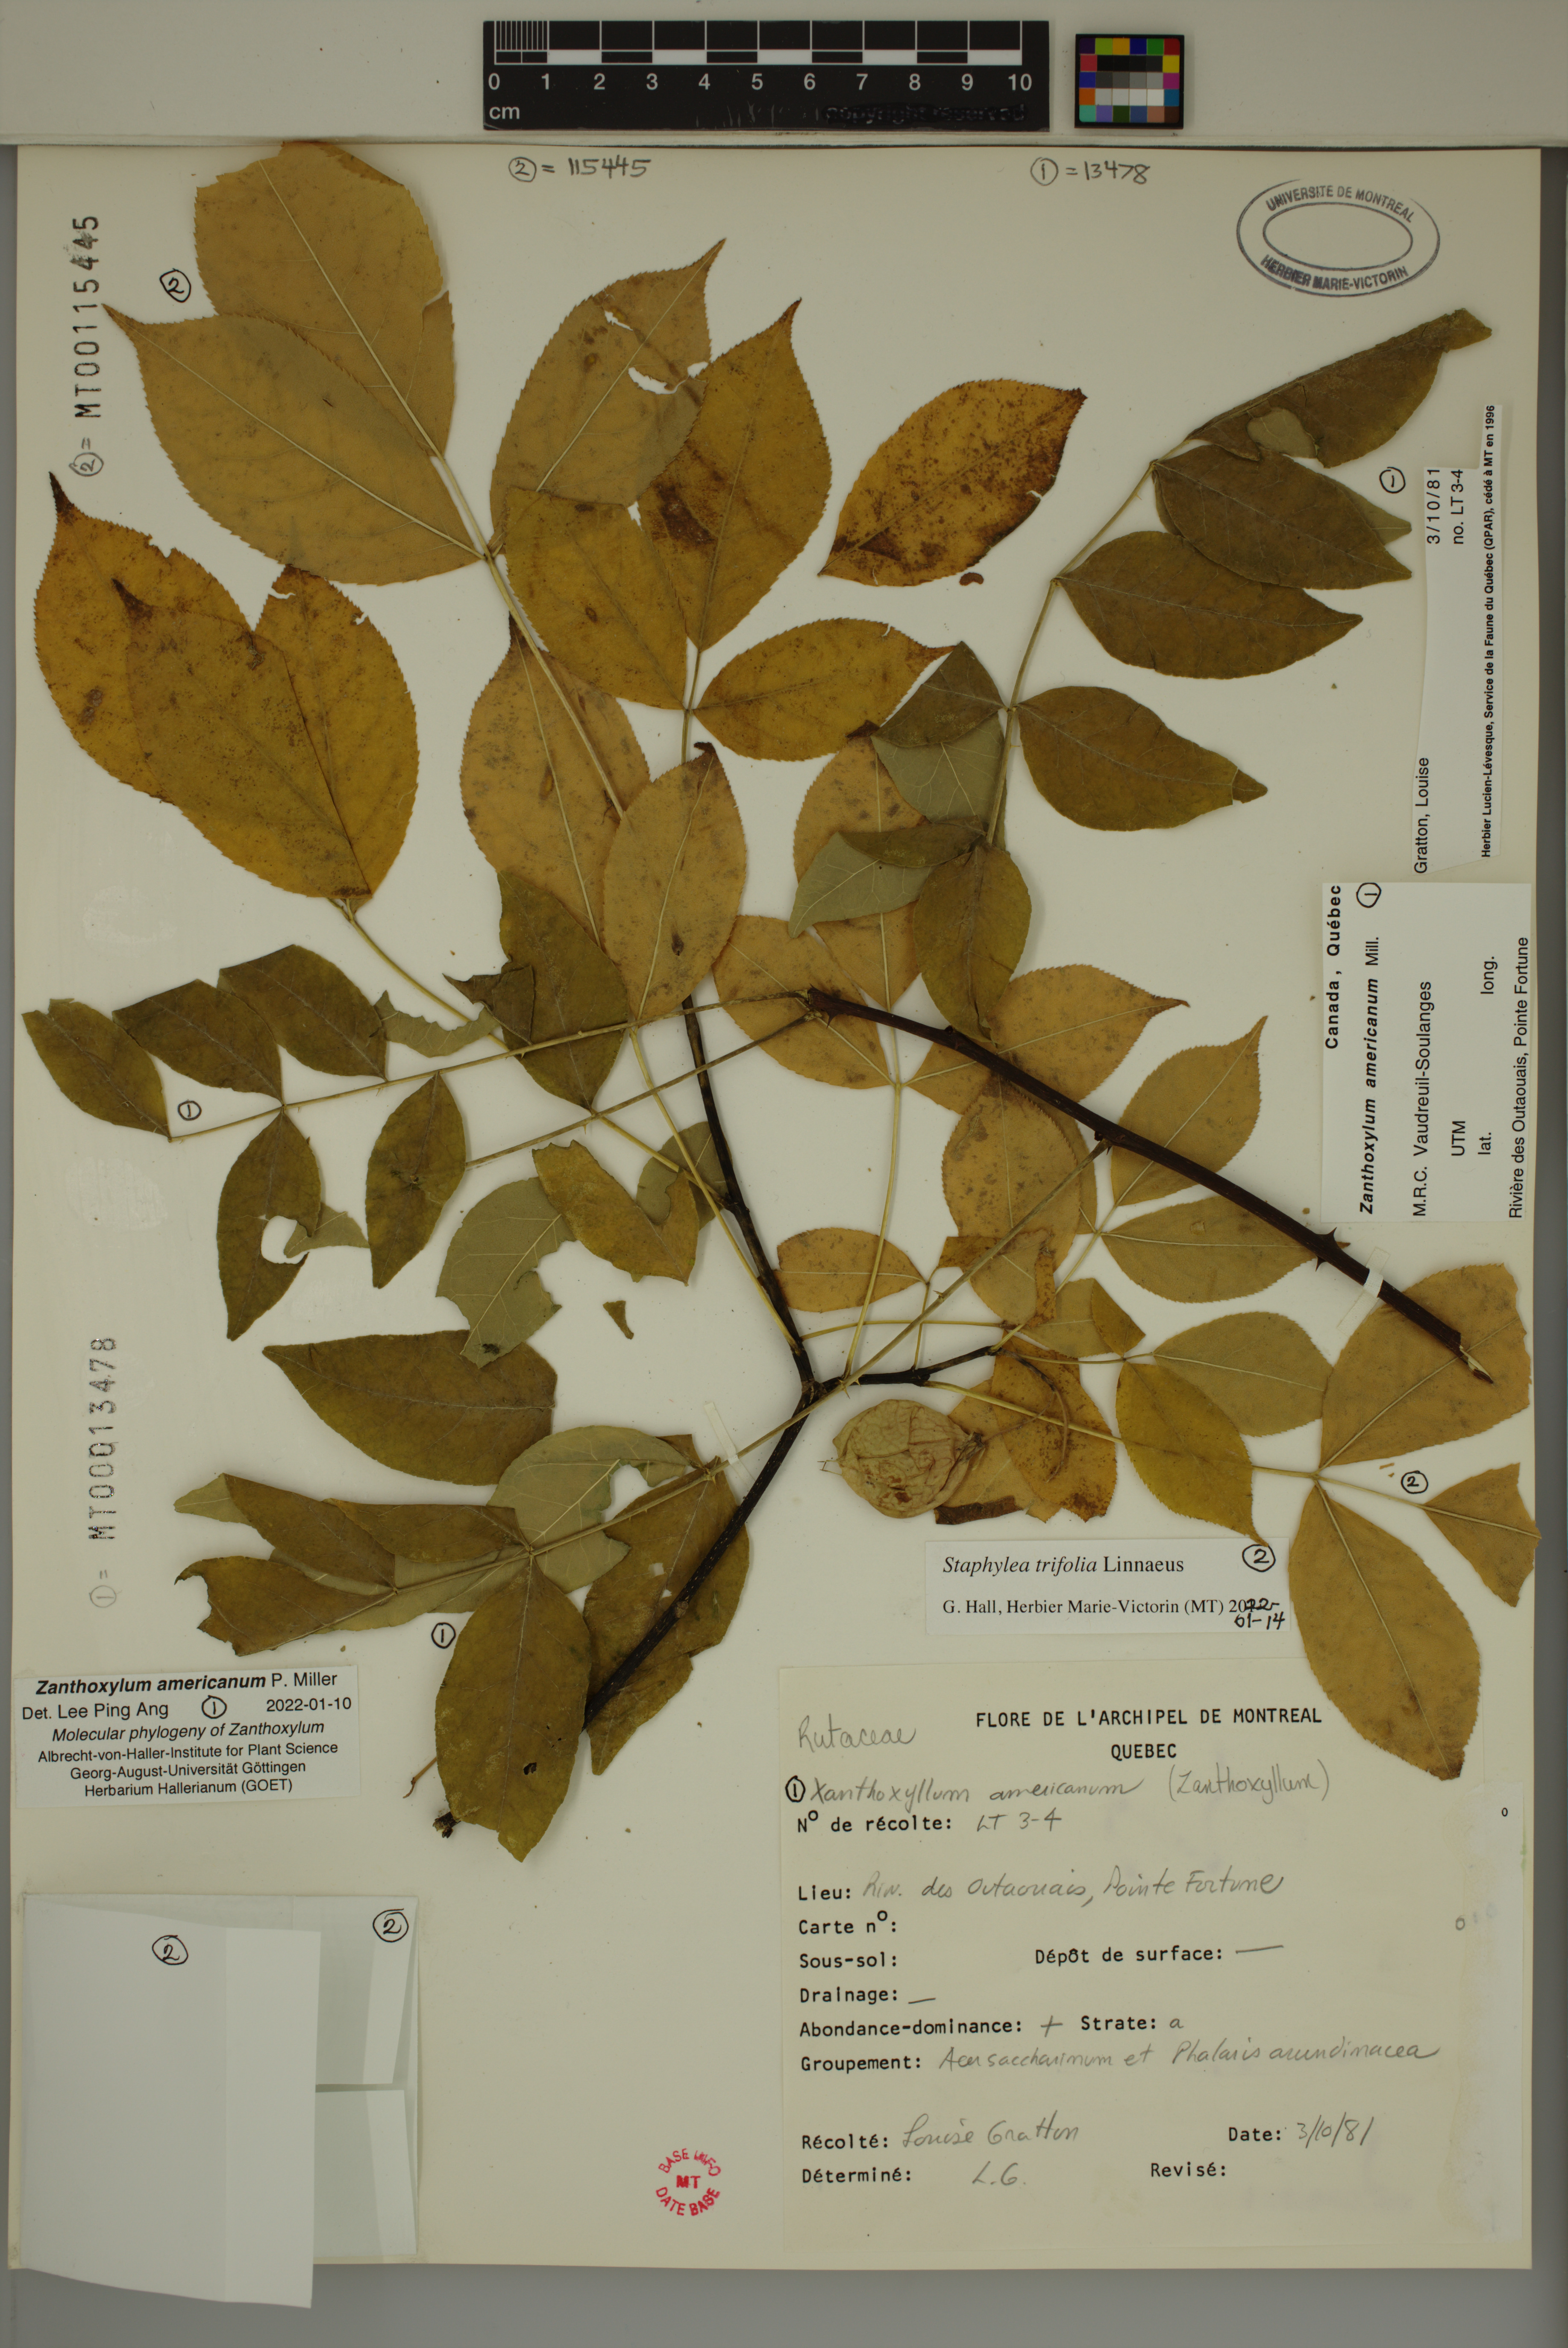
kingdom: Plantae
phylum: Tracheophyta
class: Magnoliopsida
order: Sapindales
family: Rutaceae
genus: Zanthoxylum
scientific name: Zanthoxylum americanum
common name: Northern prickly-ash
